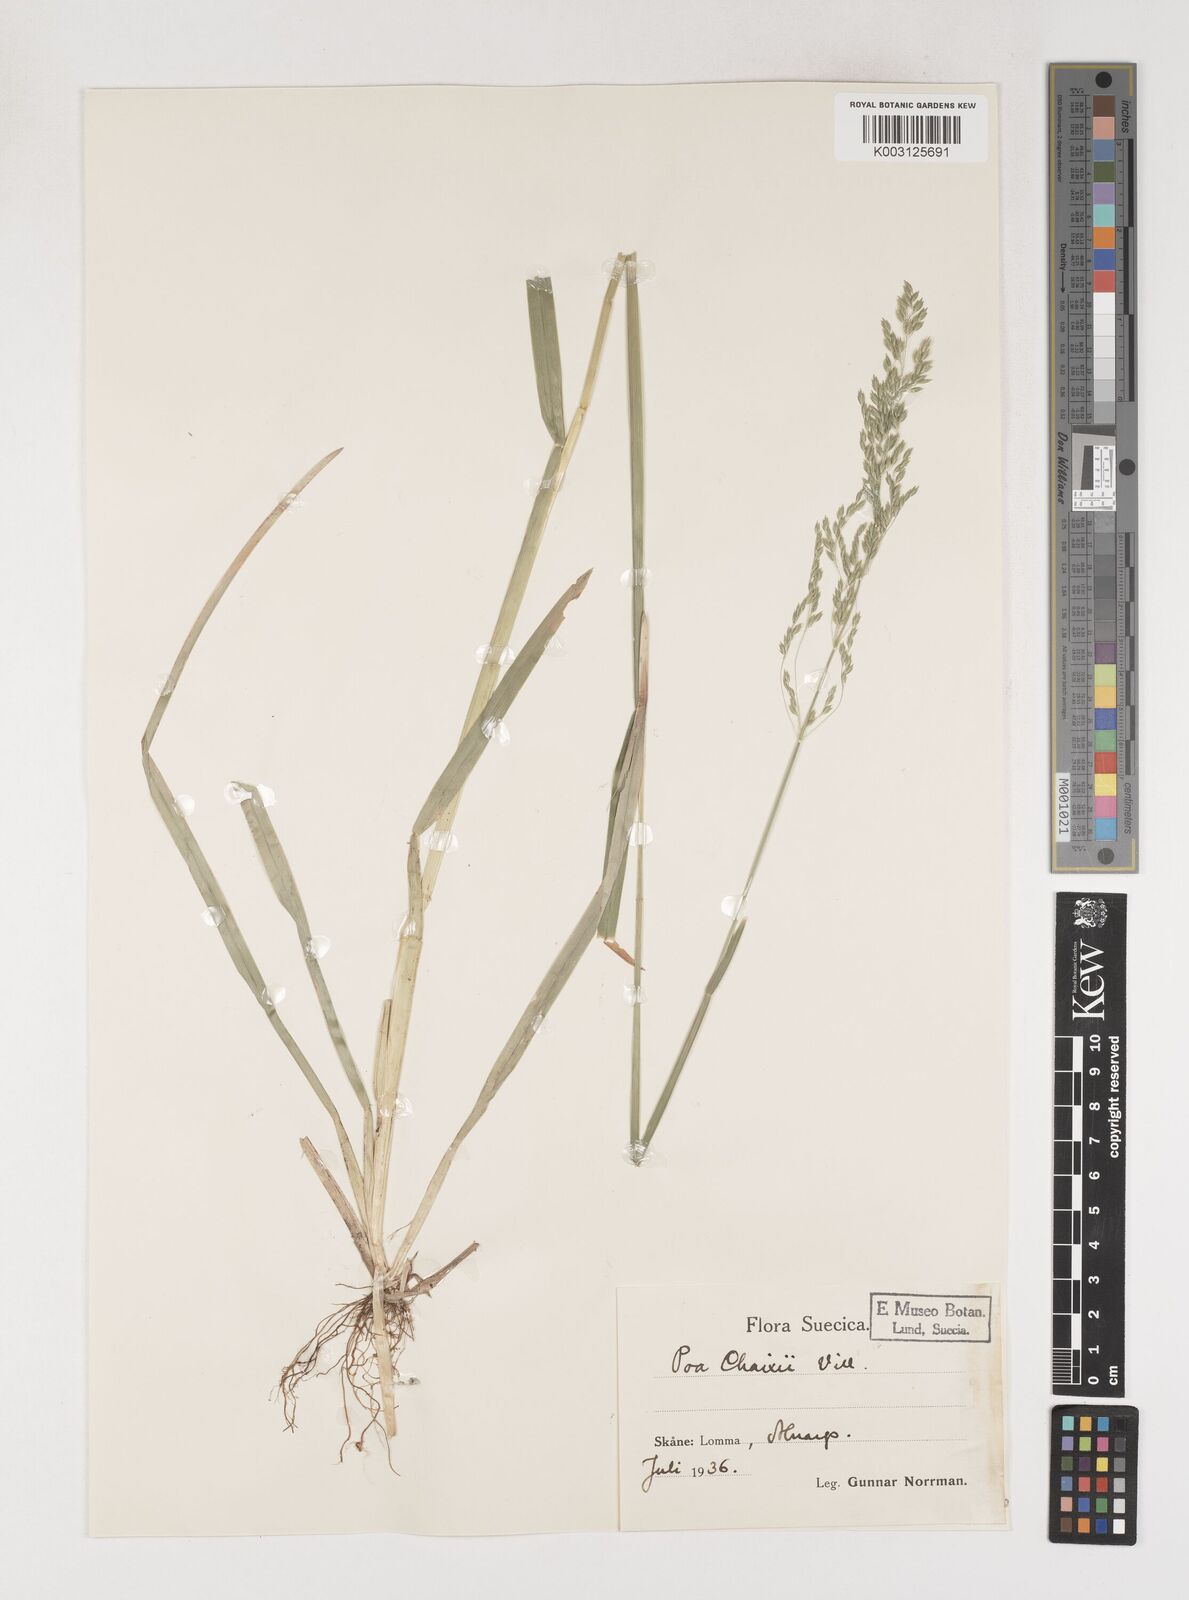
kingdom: Plantae
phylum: Tracheophyta
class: Liliopsida
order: Poales
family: Poaceae
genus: Poa
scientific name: Poa chaixii
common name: Broad-leaved meadow-grass
